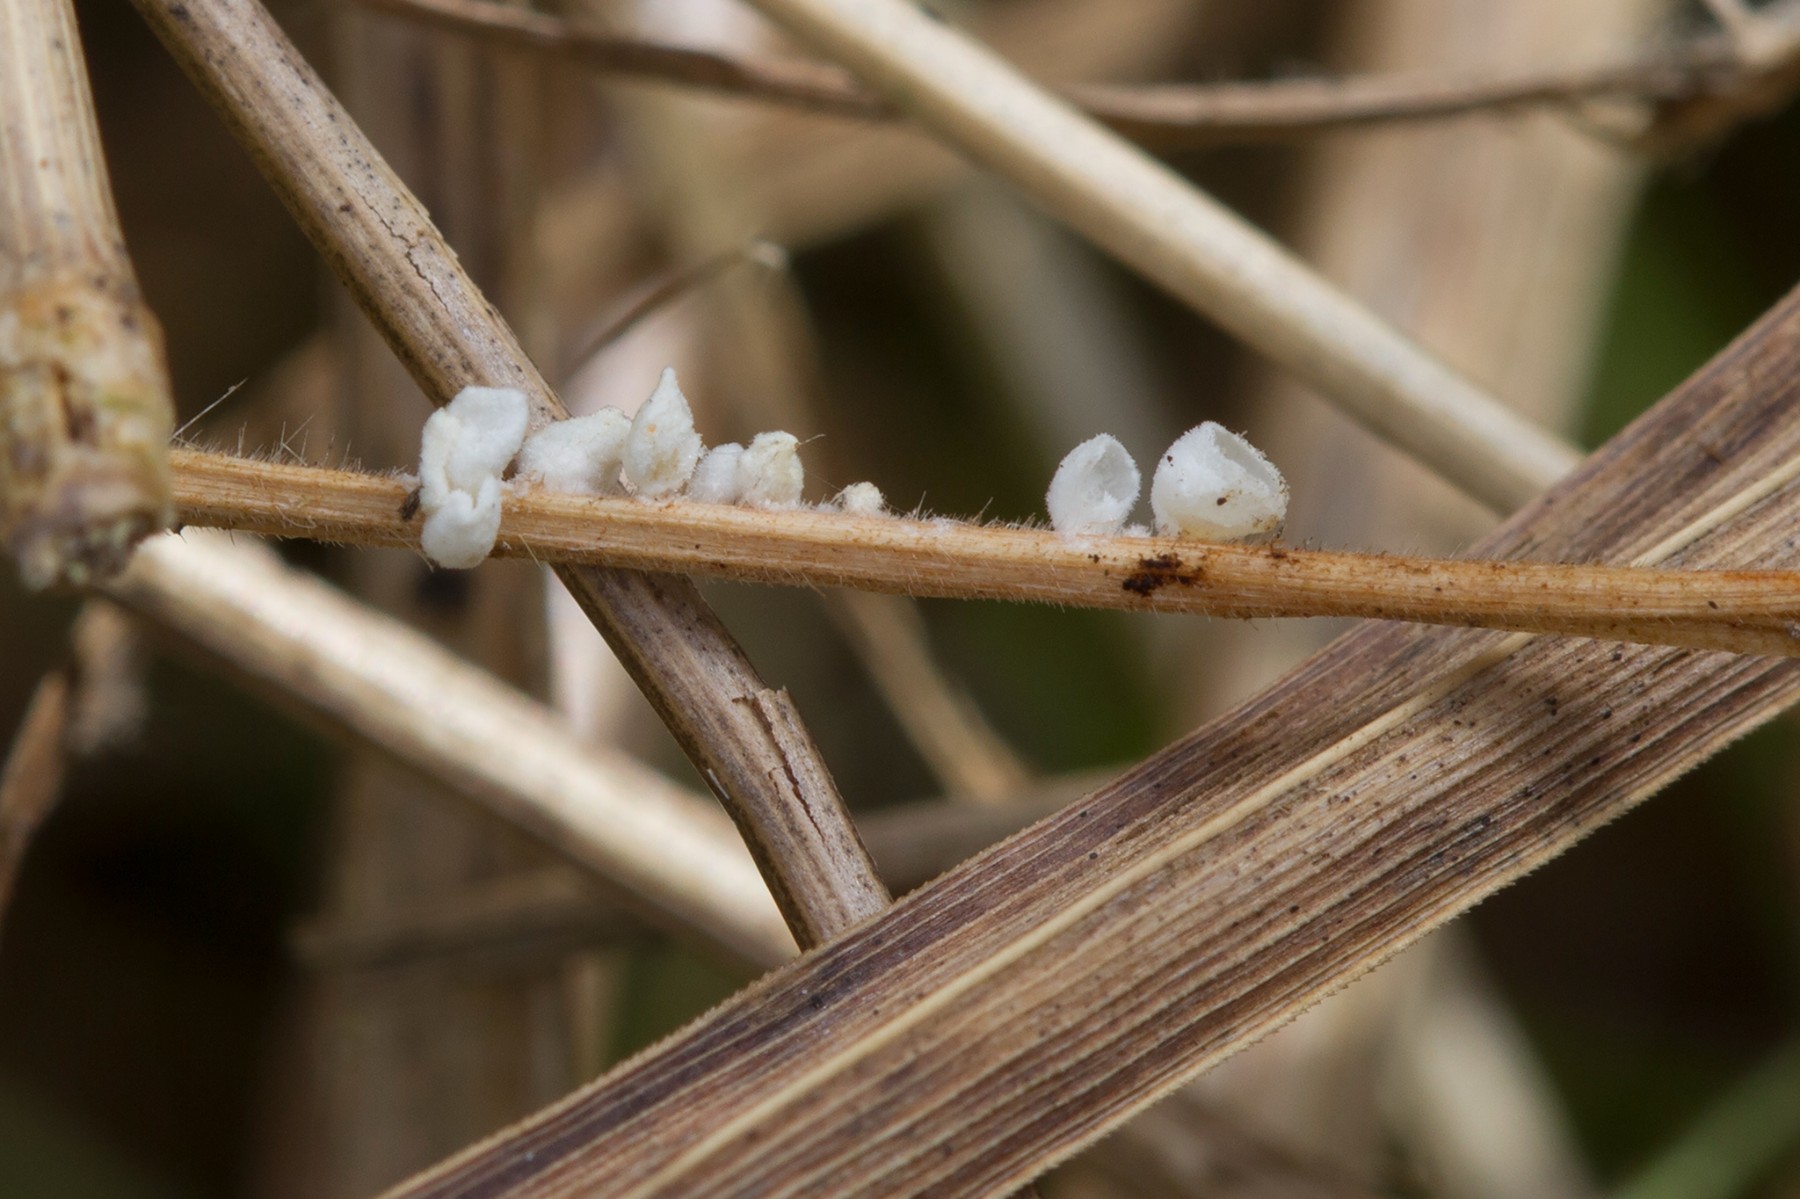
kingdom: Fungi
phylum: Basidiomycota
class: Agaricomycetes
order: Agaricales
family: Marasmiaceae
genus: Calyptella
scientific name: Calyptella capula
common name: hvidlig nældehue
